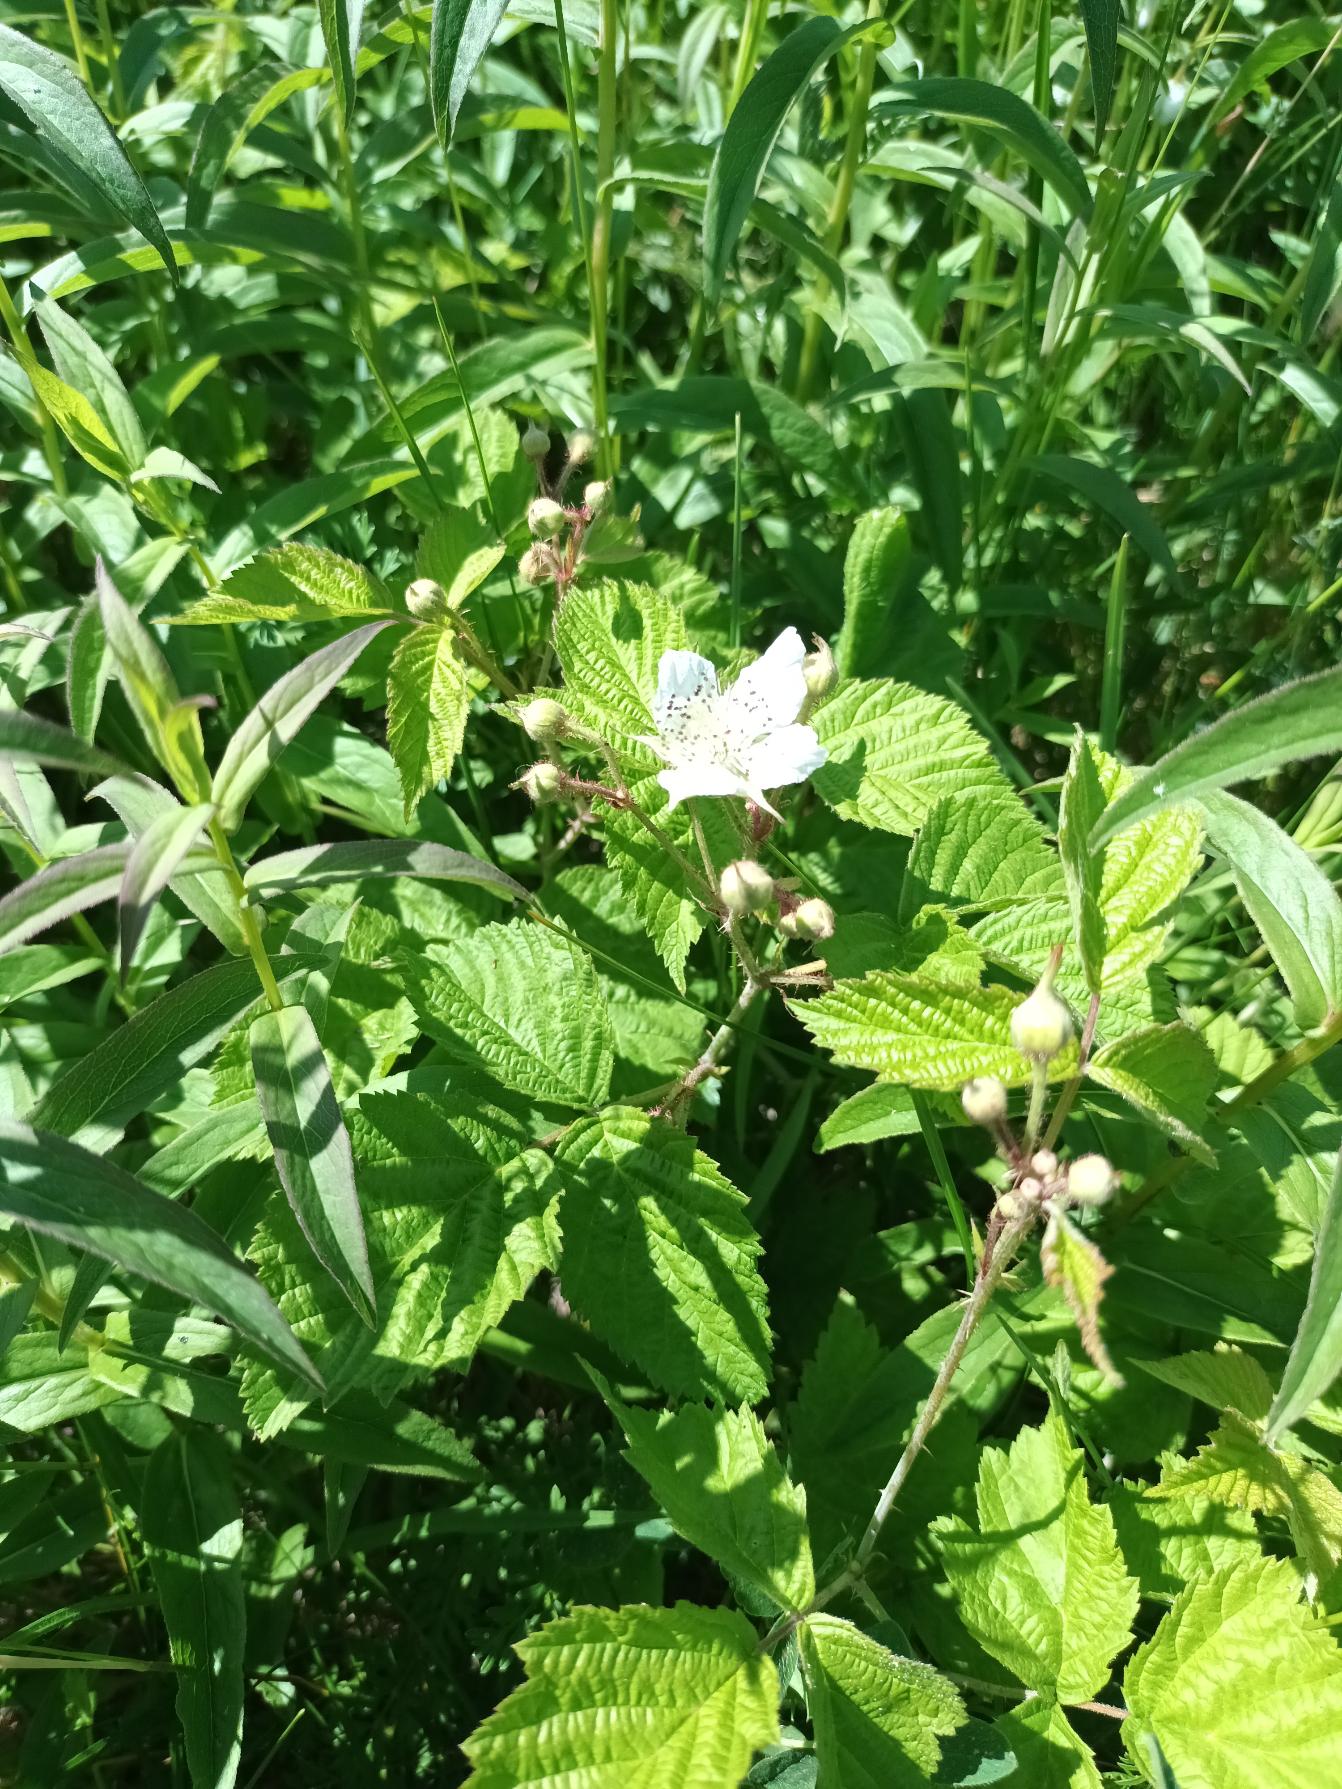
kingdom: Plantae
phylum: Tracheophyta
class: Magnoliopsida
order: Rosales
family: Rosaceae
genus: Rubus
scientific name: Rubus caesius
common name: Korbær
